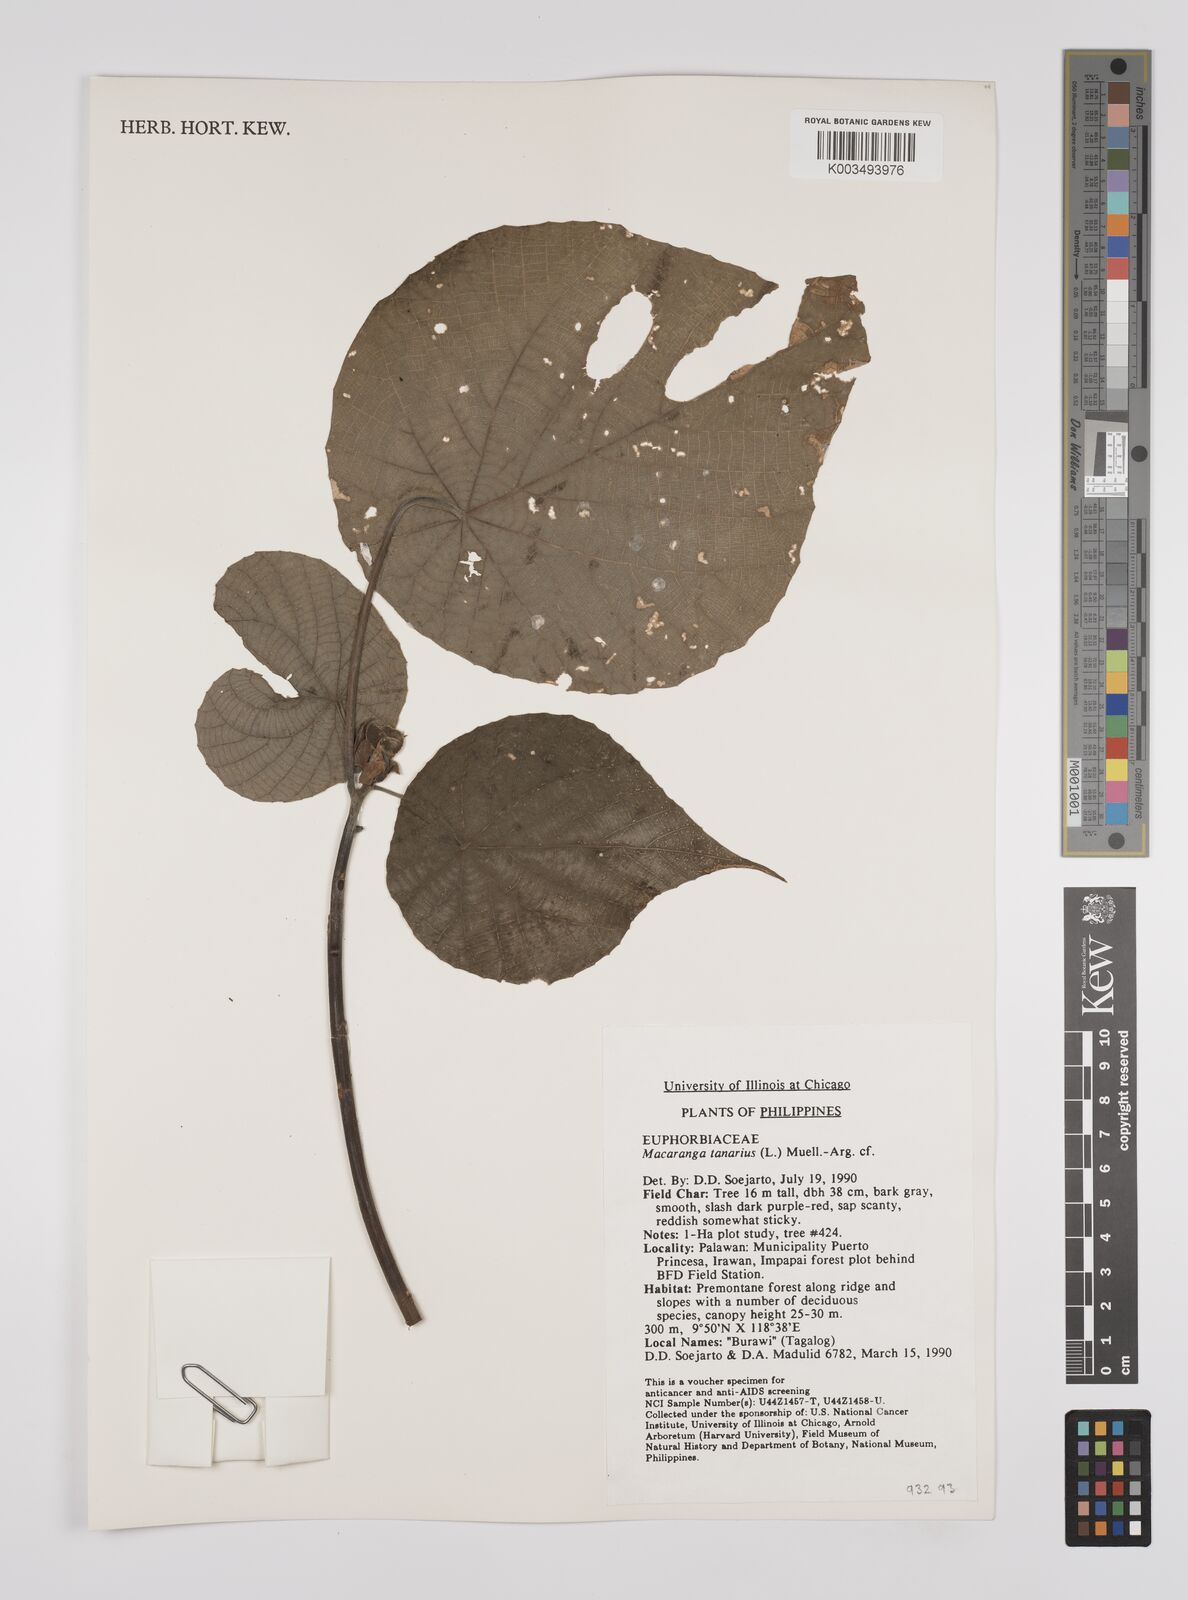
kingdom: Plantae
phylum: Tracheophyta
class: Magnoliopsida
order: Malpighiales
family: Euphorbiaceae
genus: Macaranga
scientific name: Macaranga tanarius
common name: Parasol leaf tree
